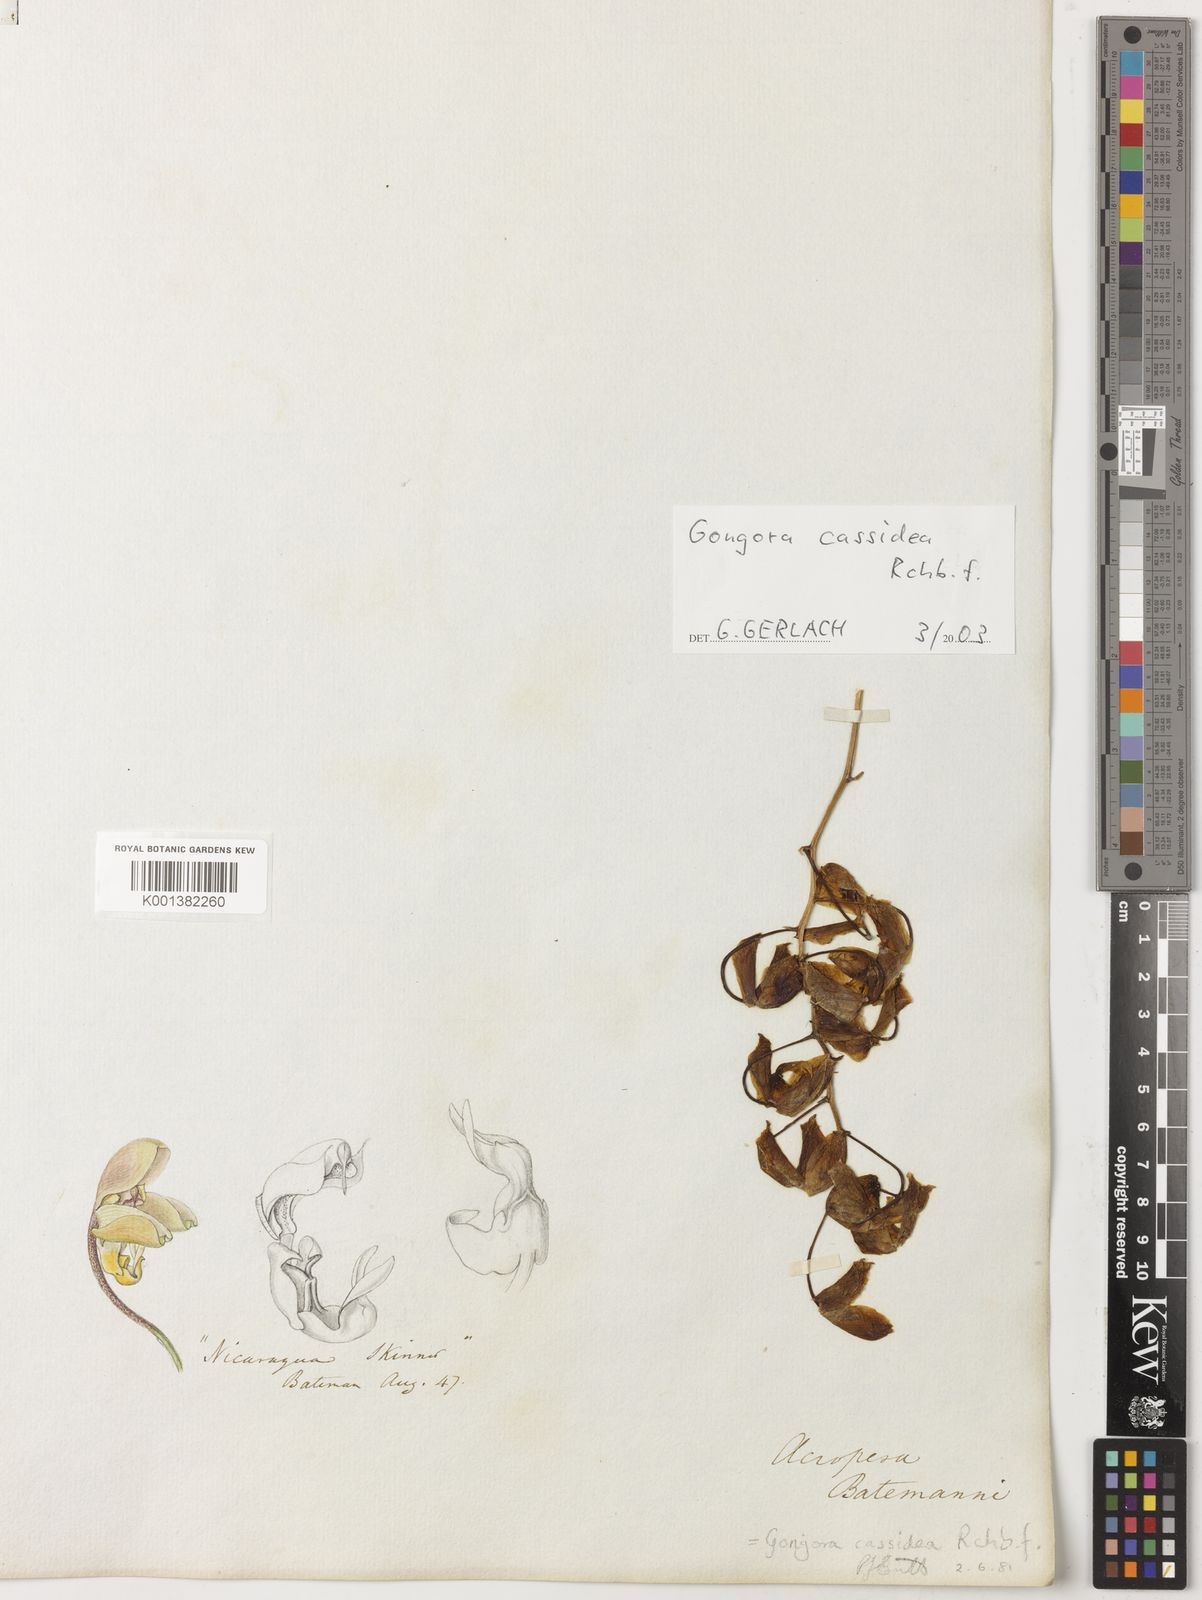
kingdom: Plantae
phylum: Tracheophyta
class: Liliopsida
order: Asparagales
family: Orchidaceae
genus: Gongora
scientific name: Gongora batemanni
